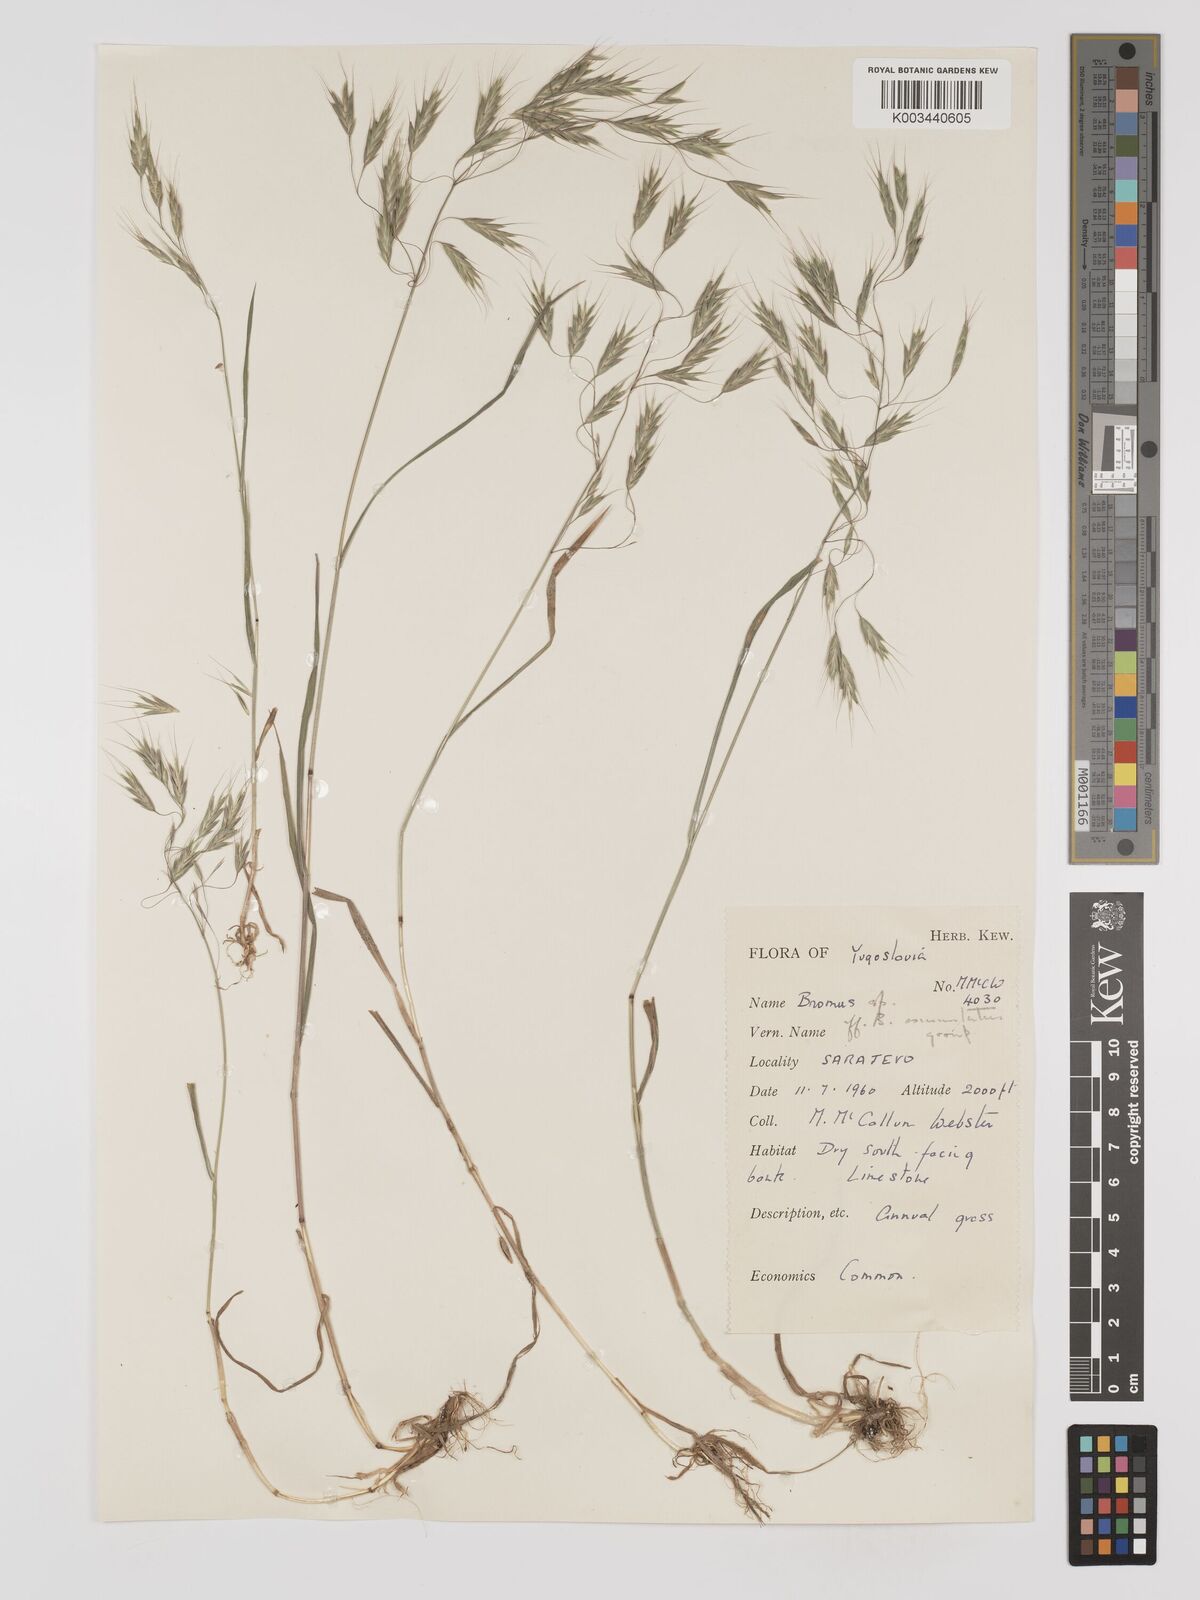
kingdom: Plantae
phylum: Tracheophyta
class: Liliopsida
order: Poales
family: Poaceae
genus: Bromus
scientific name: Bromus racemosus
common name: Bald brome
